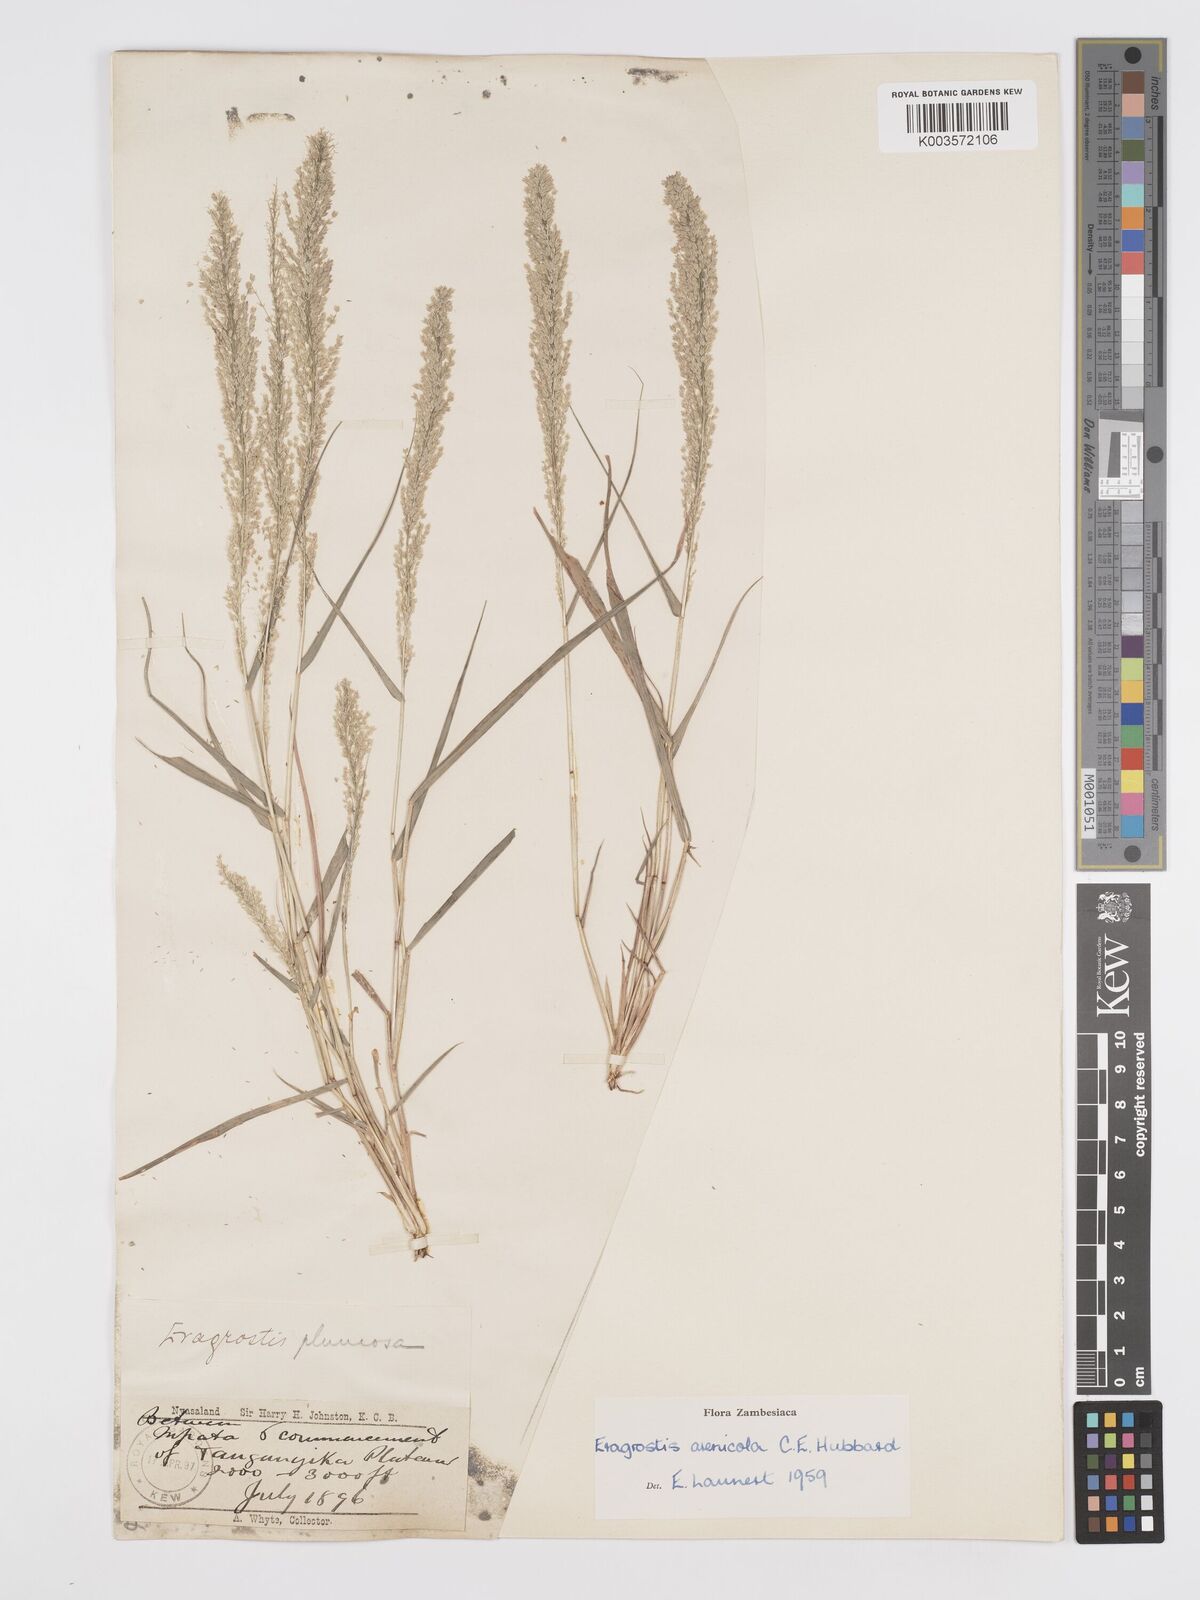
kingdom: Plantae
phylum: Tracheophyta
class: Liliopsida
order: Poales
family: Poaceae
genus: Eragrostis
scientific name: Eragrostis arenicola
